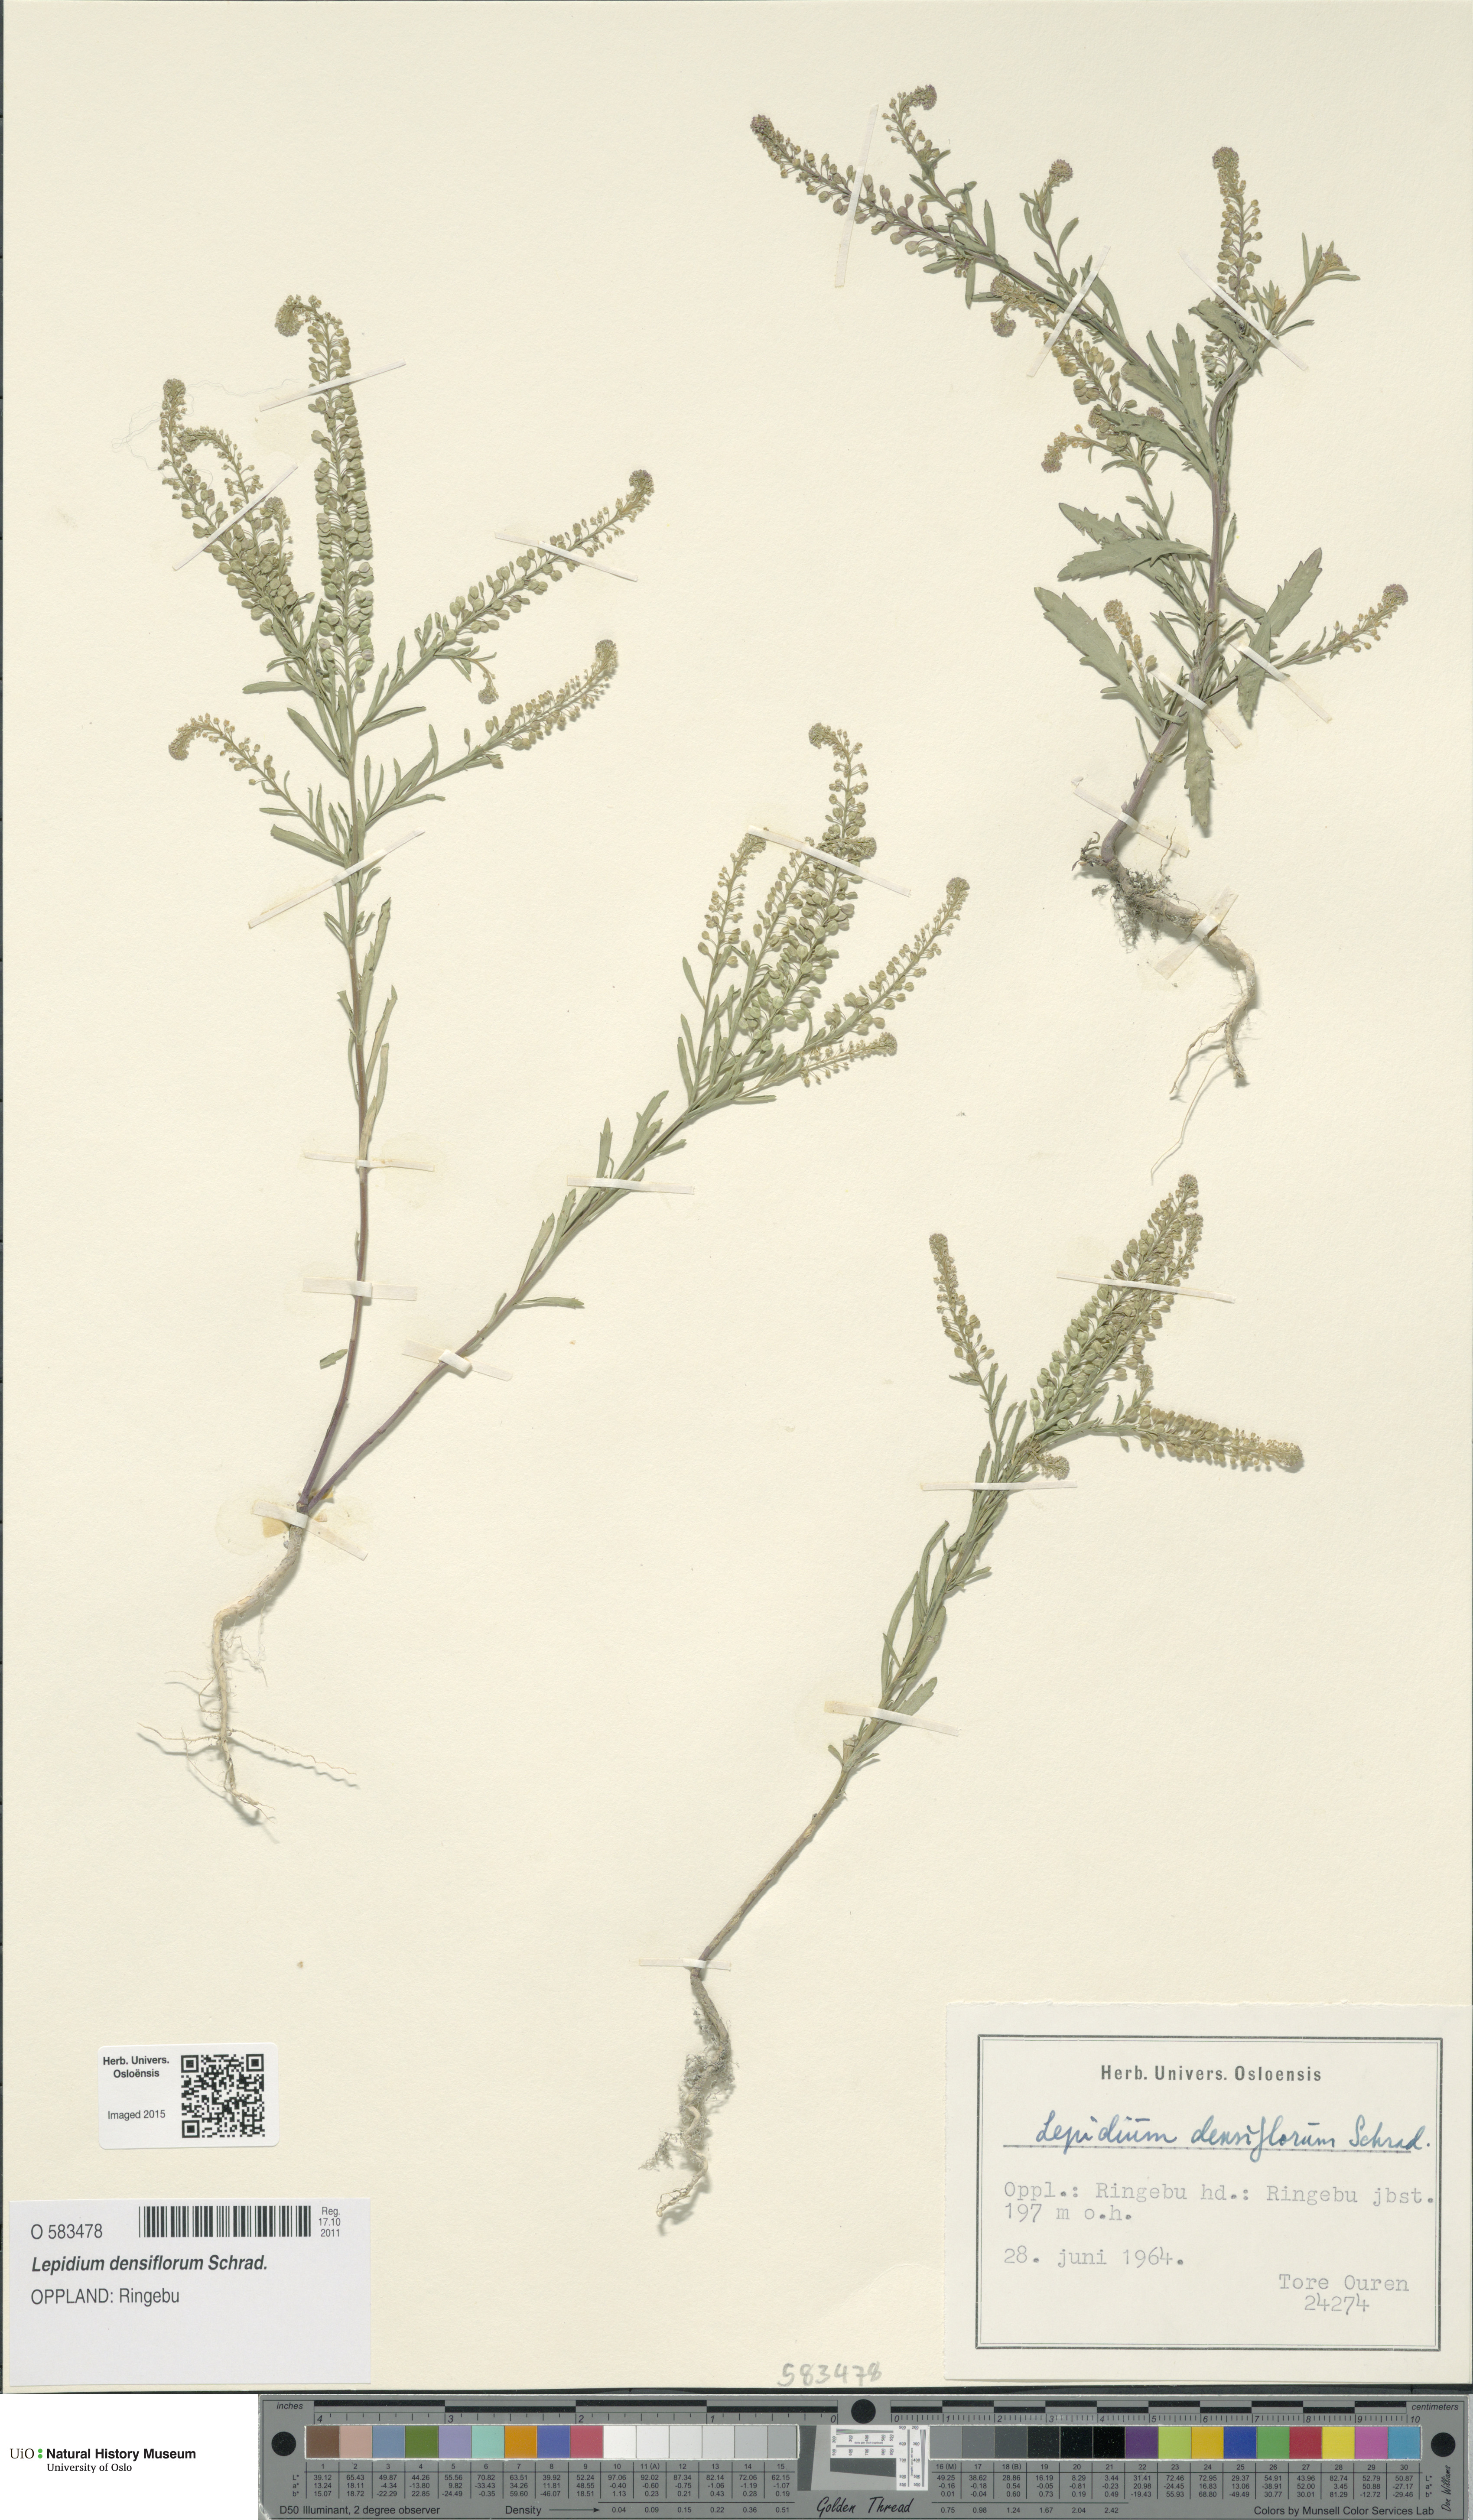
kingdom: Plantae
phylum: Tracheophyta
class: Magnoliopsida
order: Brassicales
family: Brassicaceae
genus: Lepidium
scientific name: Lepidium densiflorum
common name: Miner's pepperwort
